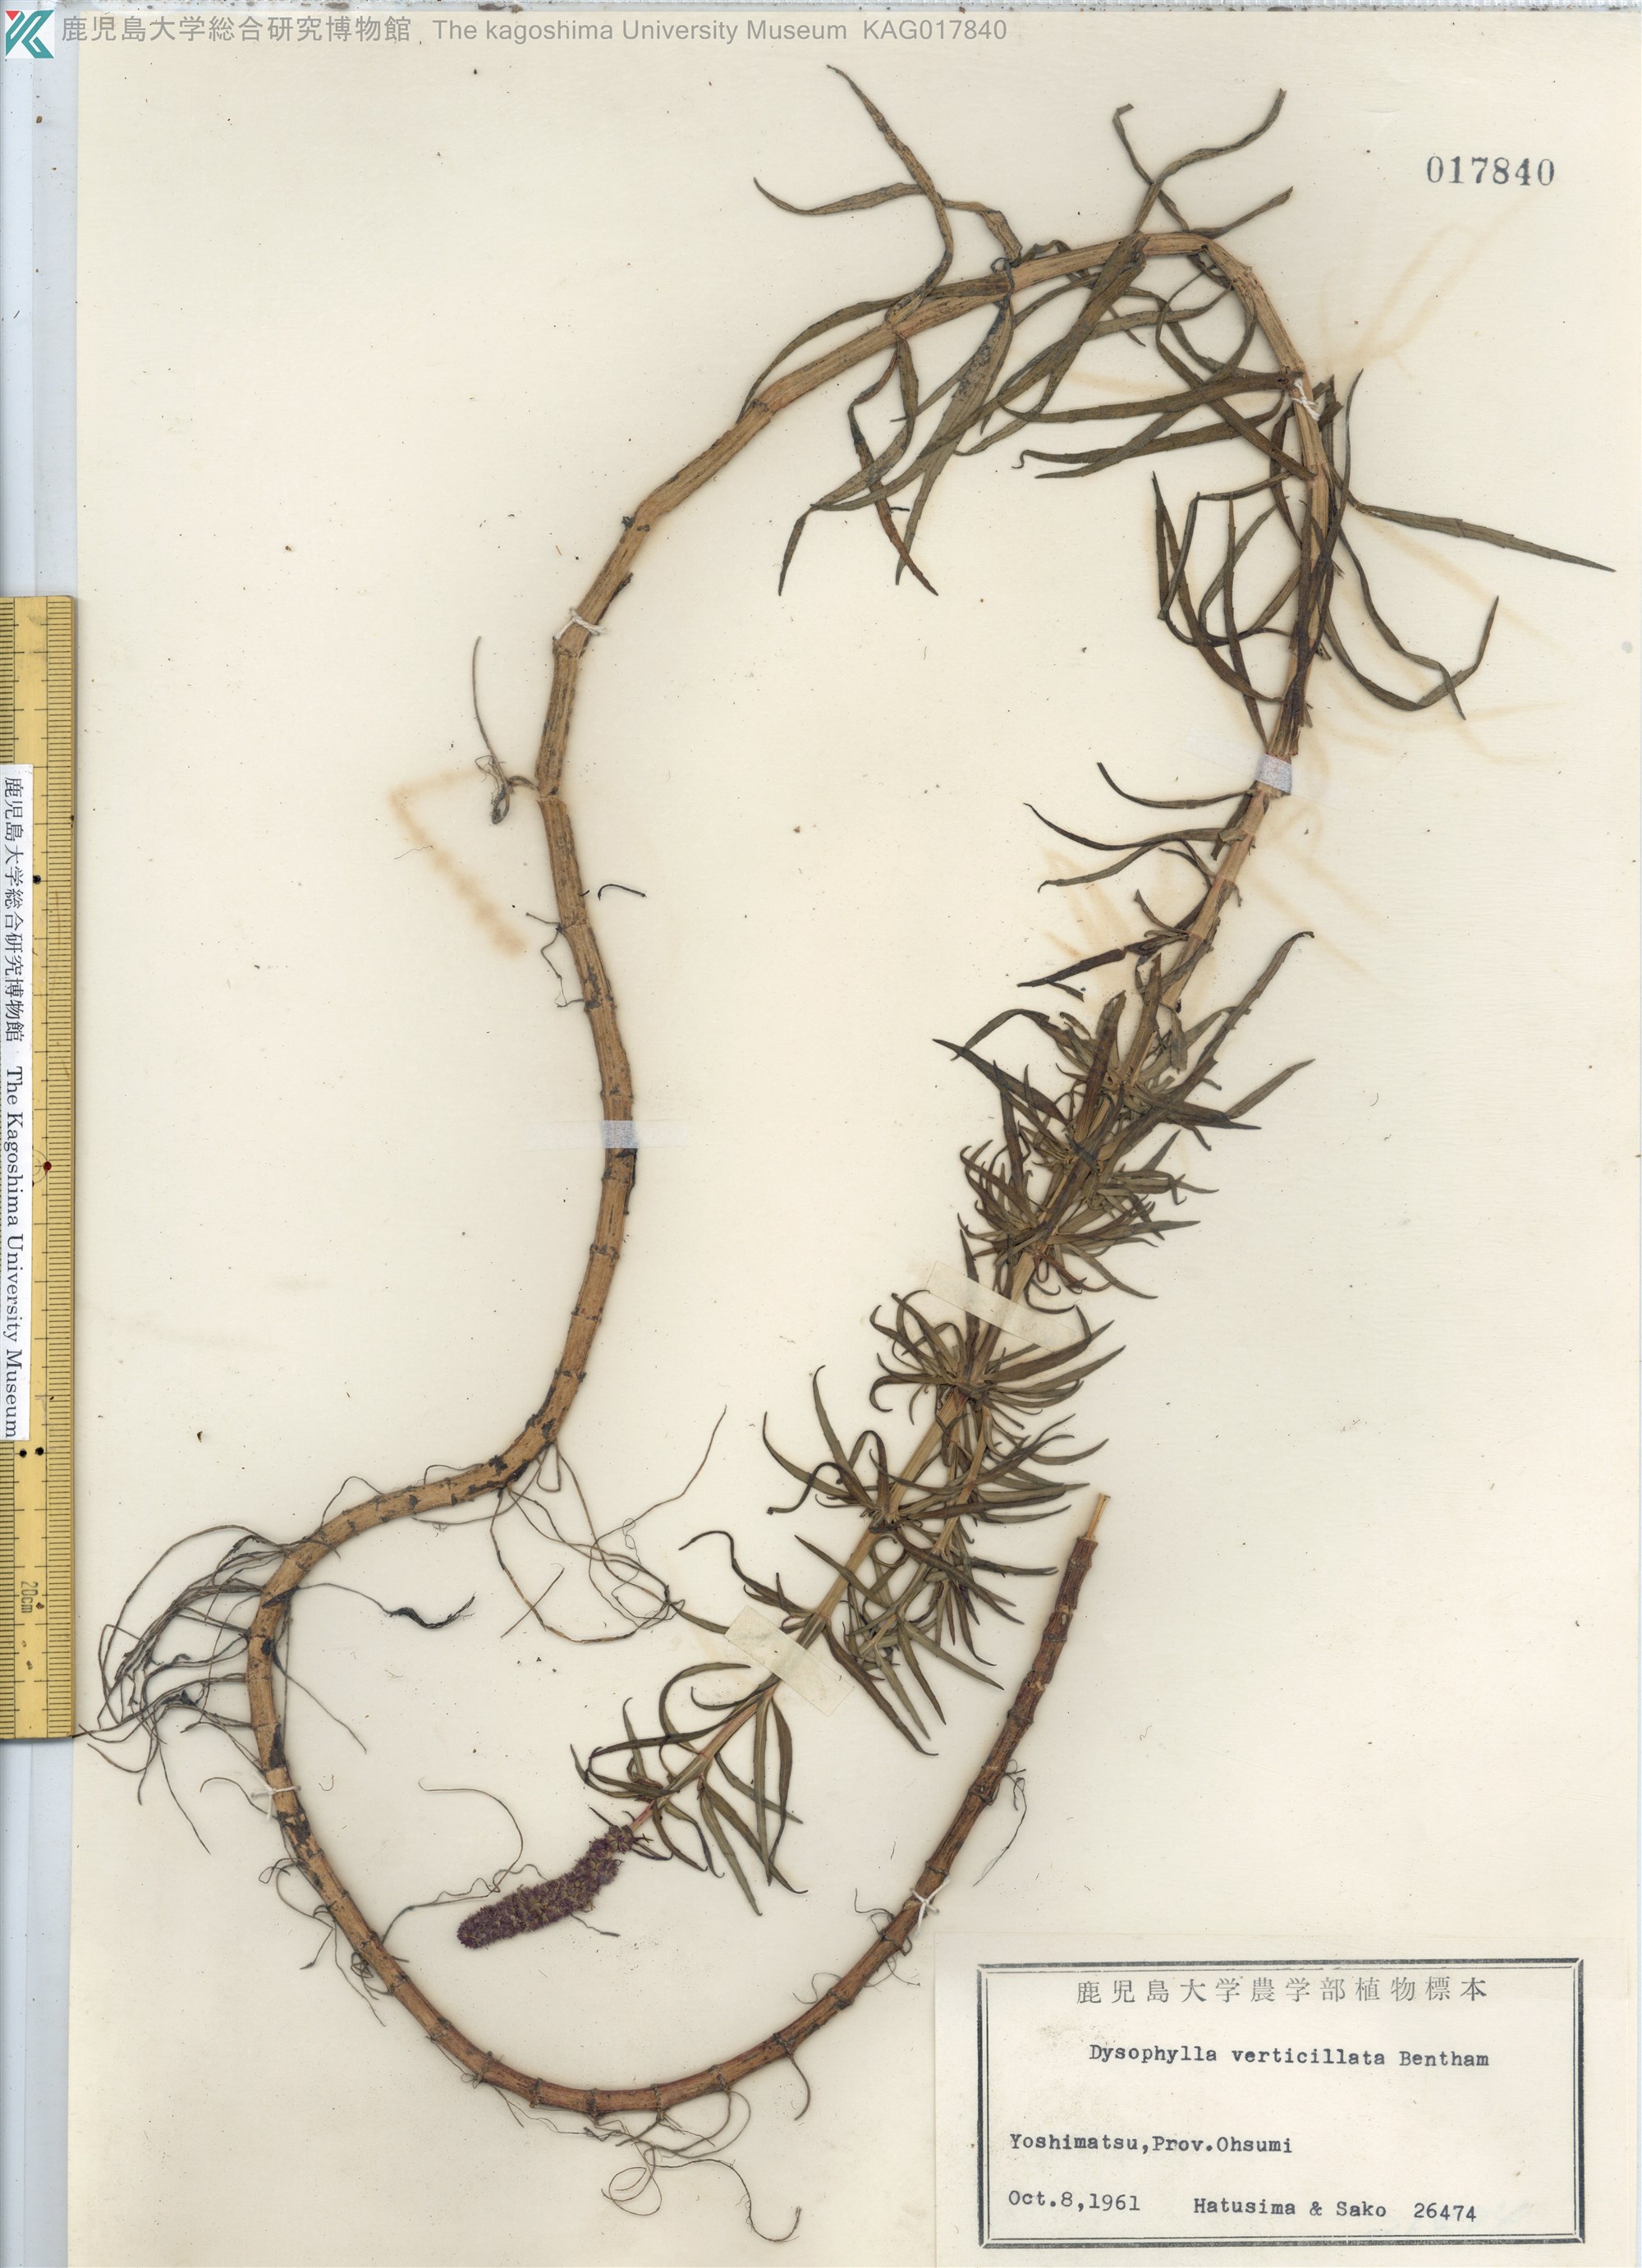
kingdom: Plantae
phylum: Tracheophyta
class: Magnoliopsida
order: Lamiales
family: Lamiaceae
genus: Pogostemon
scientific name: Pogostemon stellatus
